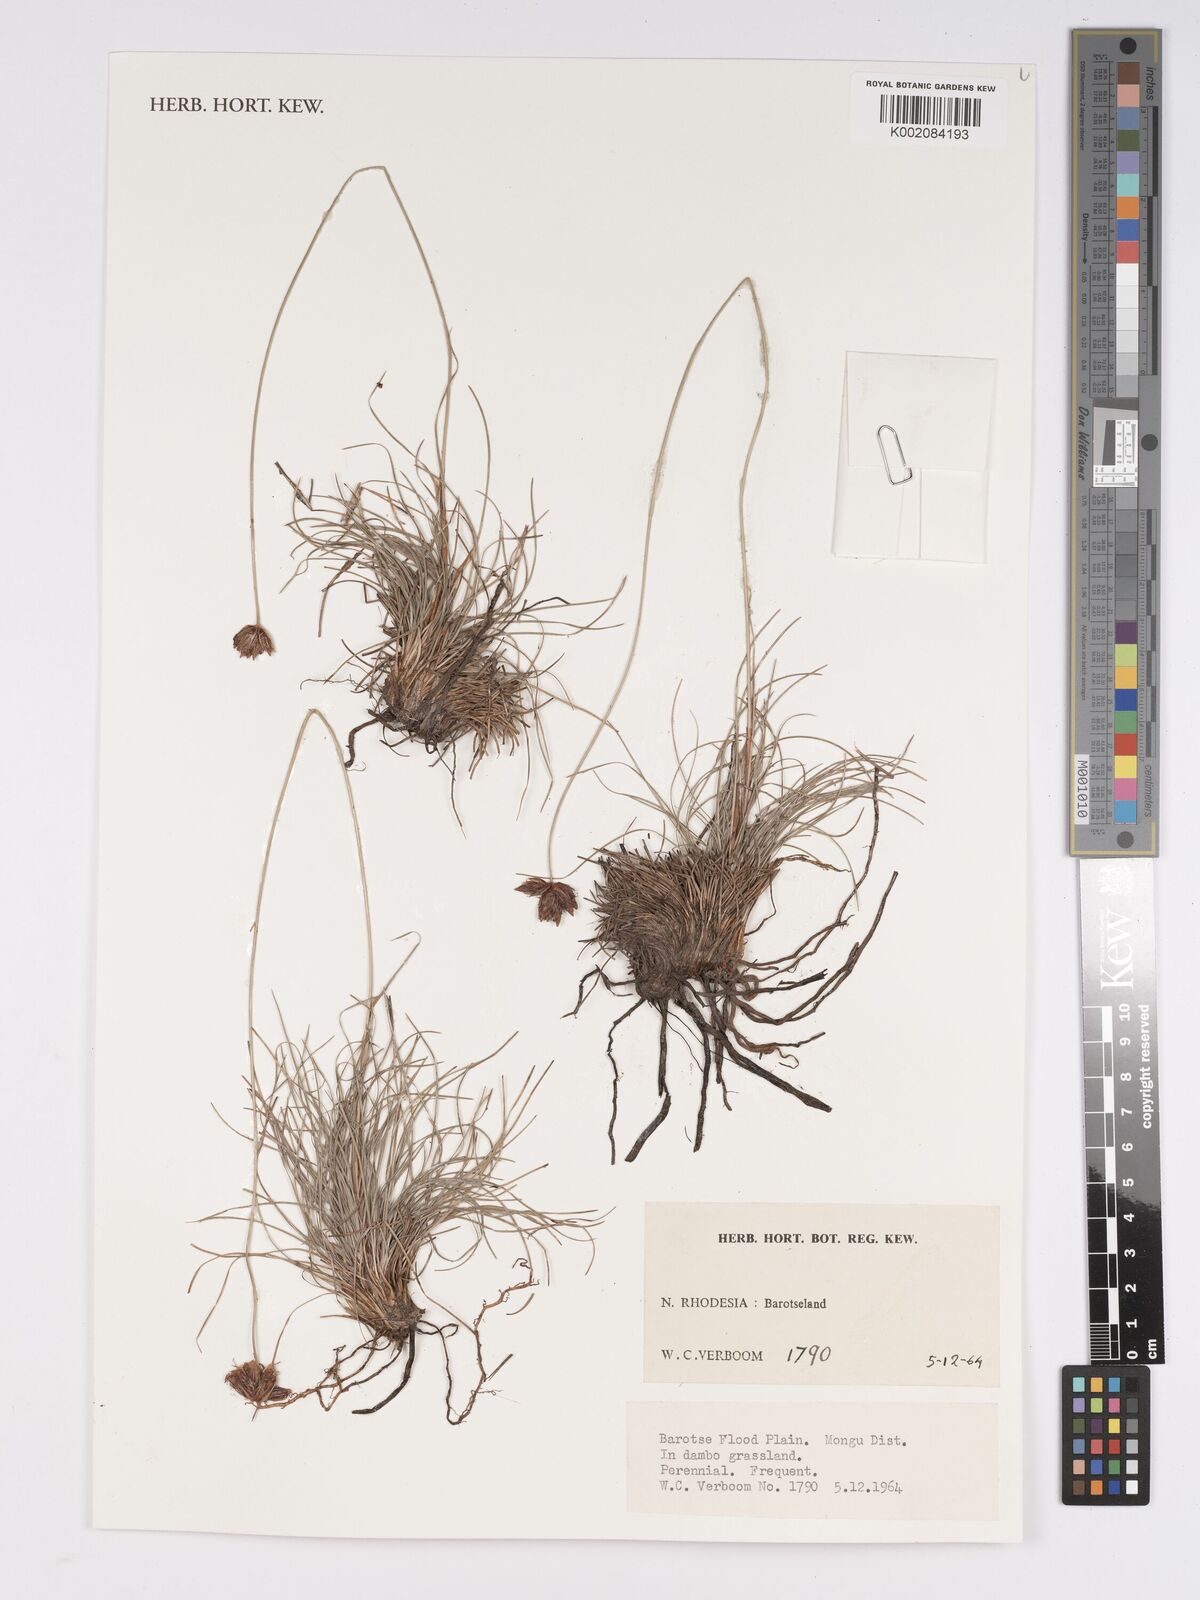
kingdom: Plantae
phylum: Tracheophyta
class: Liliopsida
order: Poales
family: Cyperaceae
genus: Bulbostylis
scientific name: Bulbostylis
